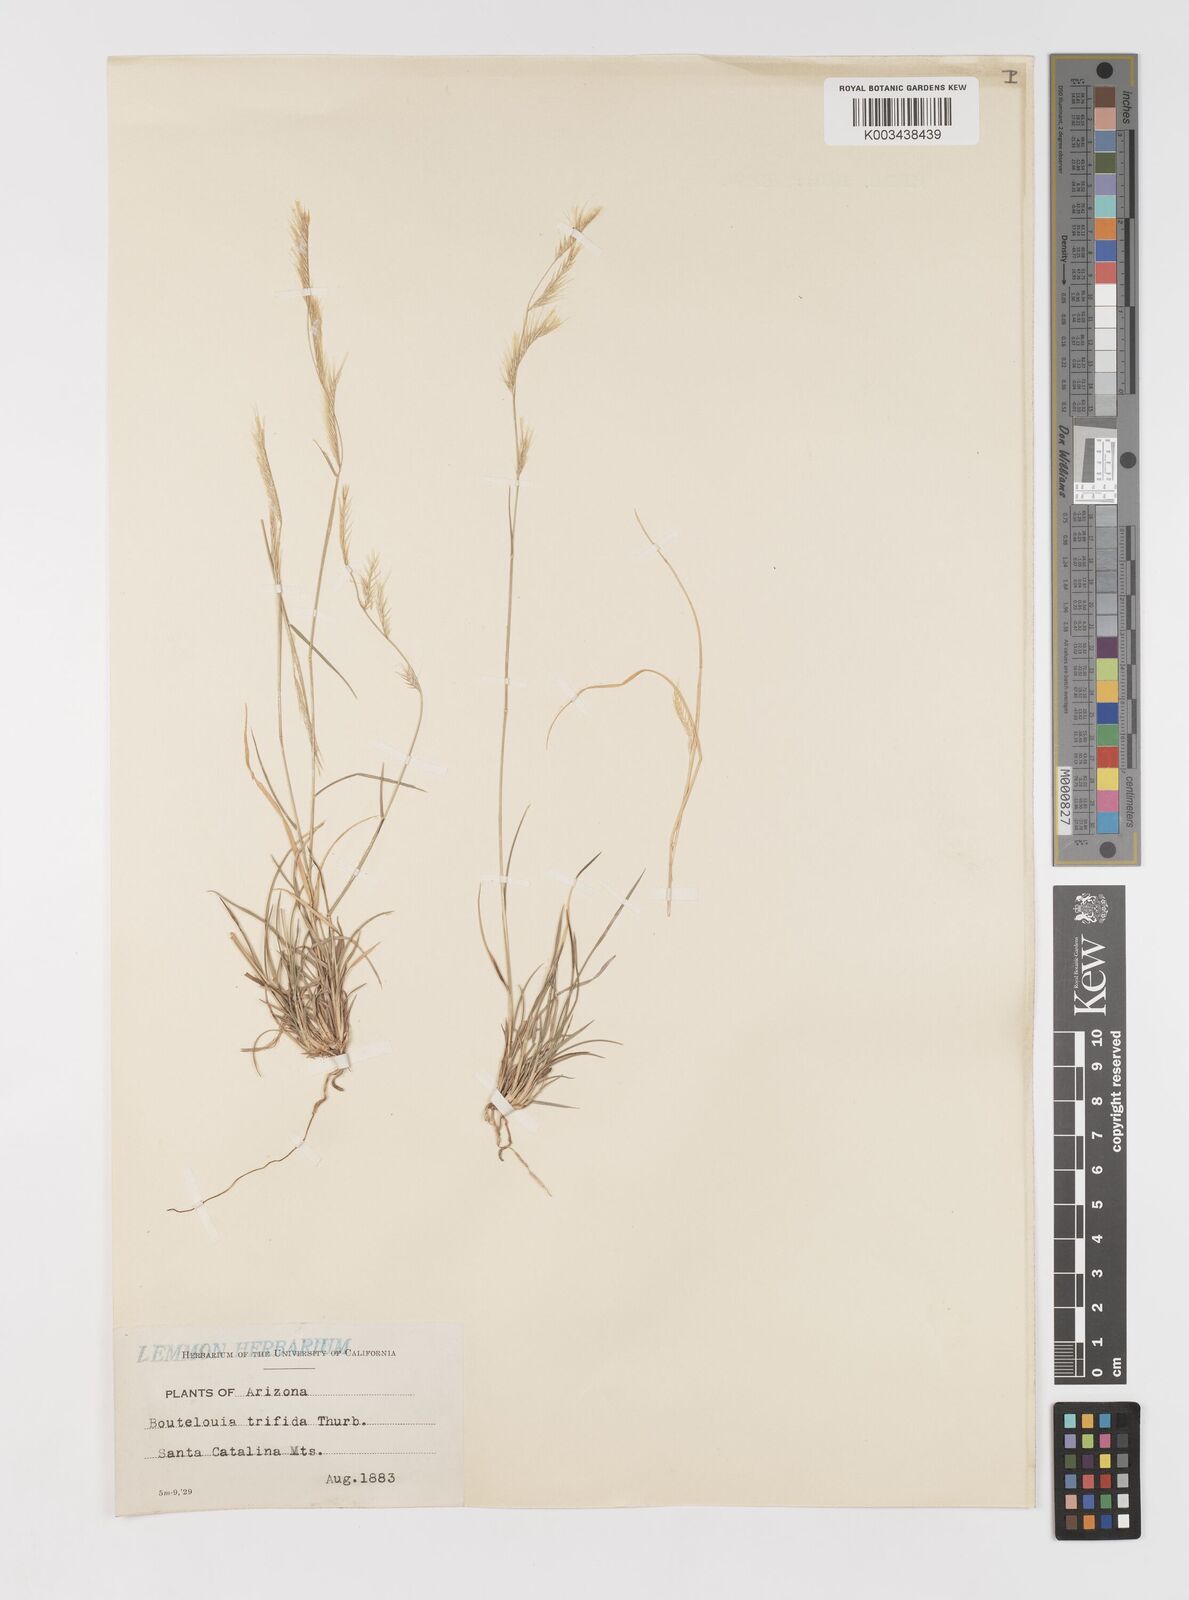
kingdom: Plantae
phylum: Tracheophyta
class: Liliopsida
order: Poales
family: Poaceae
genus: Bouteloua
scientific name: Bouteloua trifida
